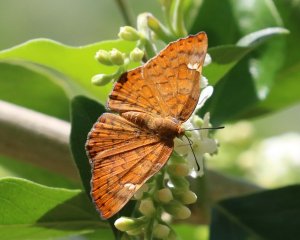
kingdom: Animalia
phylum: Arthropoda
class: Insecta
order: Lepidoptera
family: Lycaenidae
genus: Emesis
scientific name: Emesis emesia
